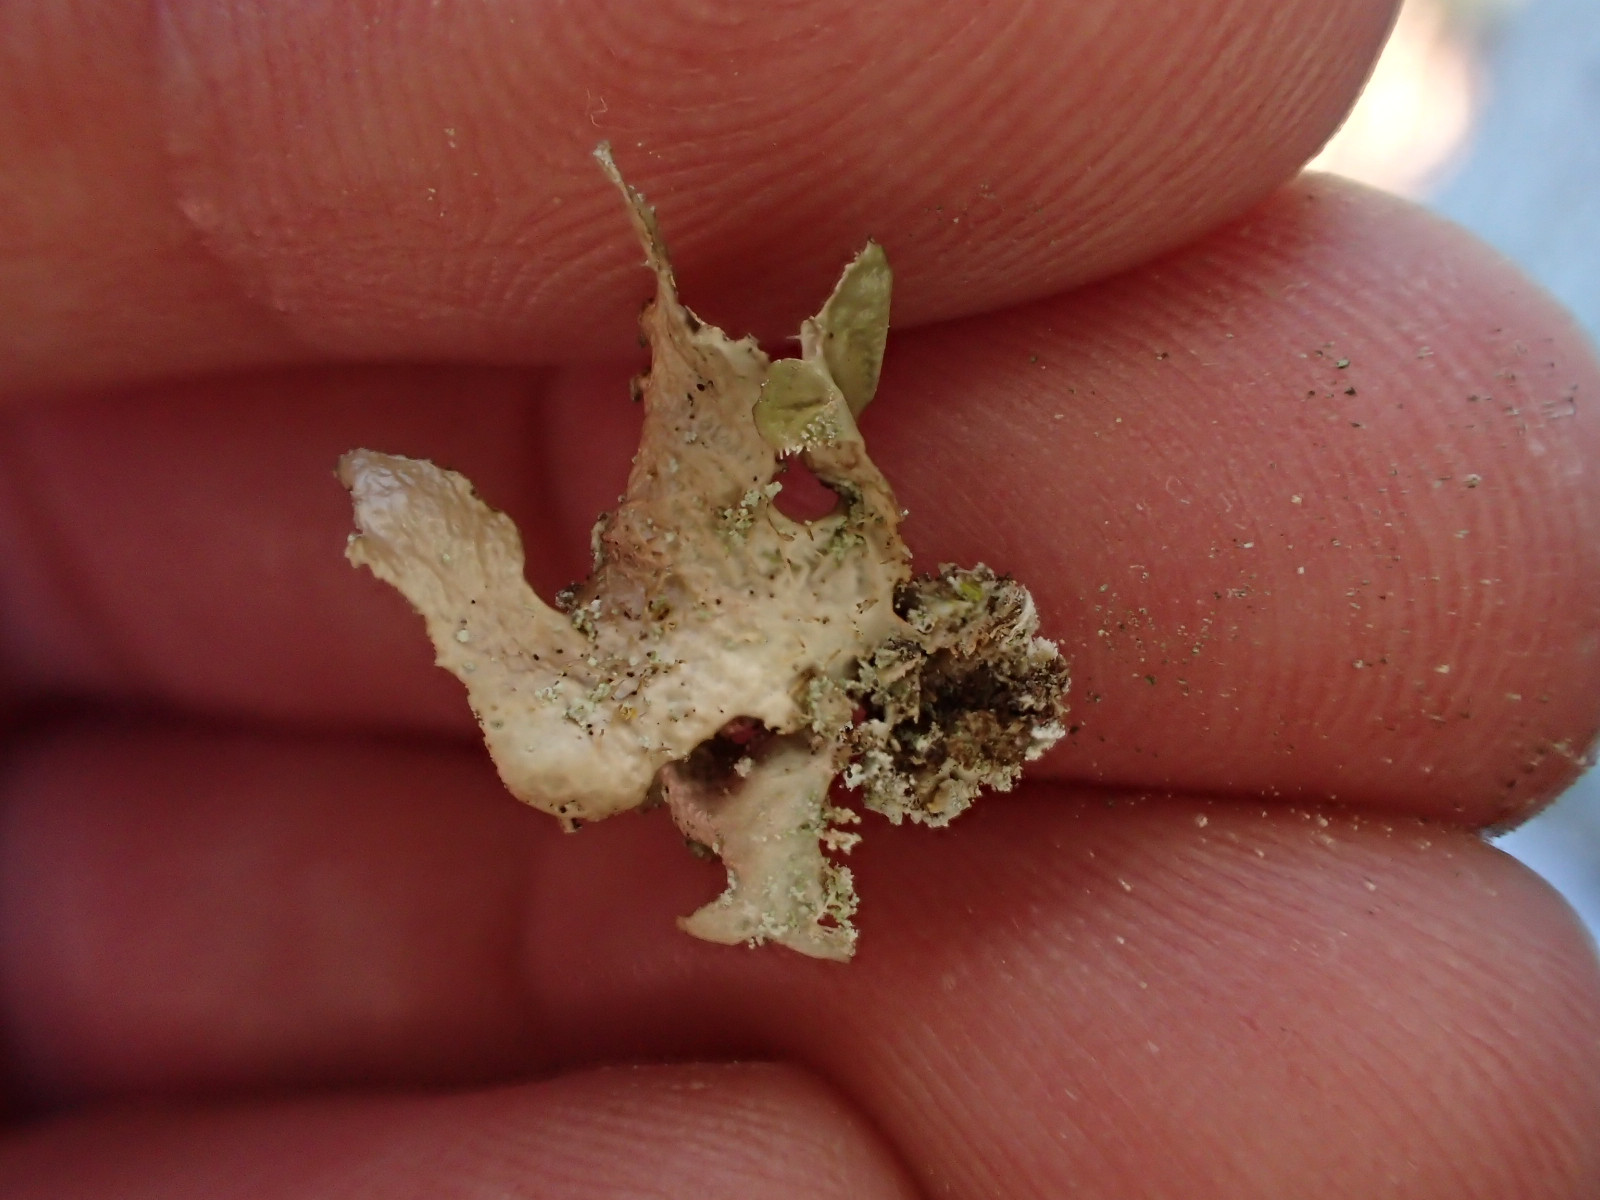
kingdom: Fungi
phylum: Ascomycota
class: Lecanoromycetes
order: Lecanorales
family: Parmeliaceae
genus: Nephromopsis
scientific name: Nephromopsis chlorophylla
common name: olivenbrun kruslav
